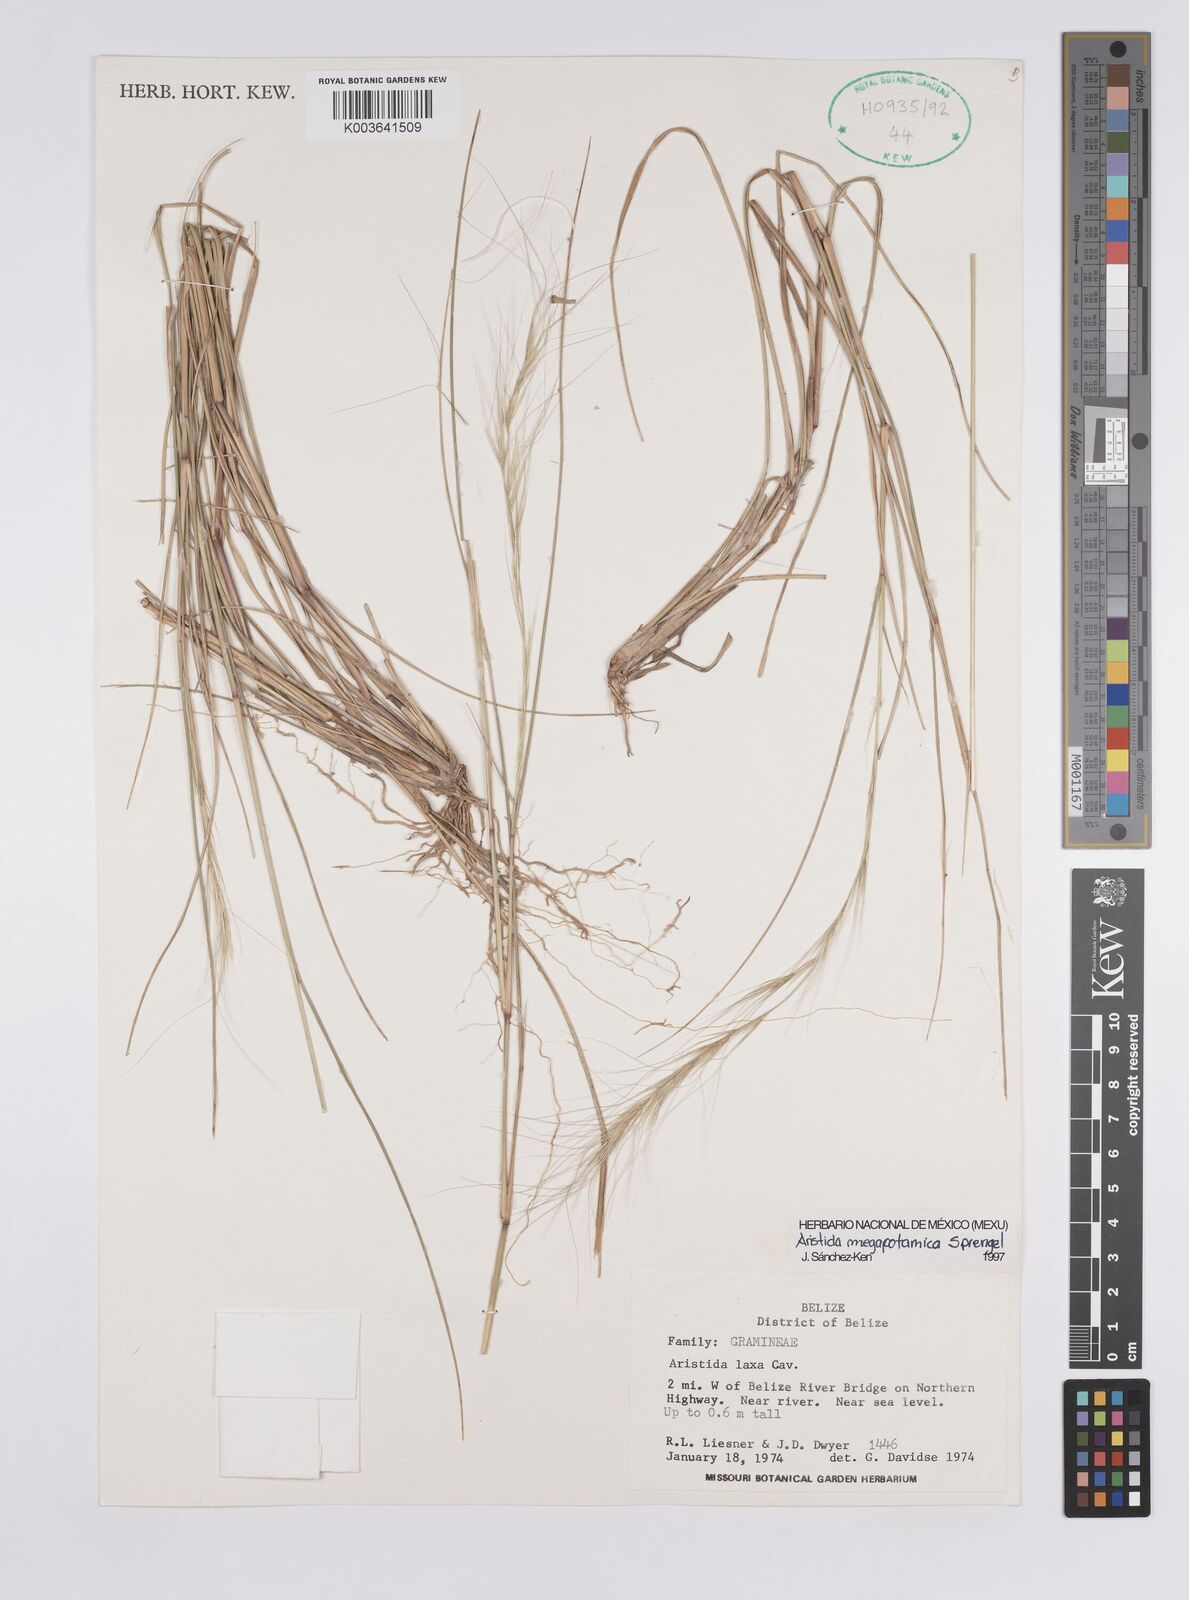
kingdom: Plantae
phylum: Tracheophyta
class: Liliopsida
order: Poales
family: Poaceae
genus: Aristida
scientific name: Aristida megapotamica
